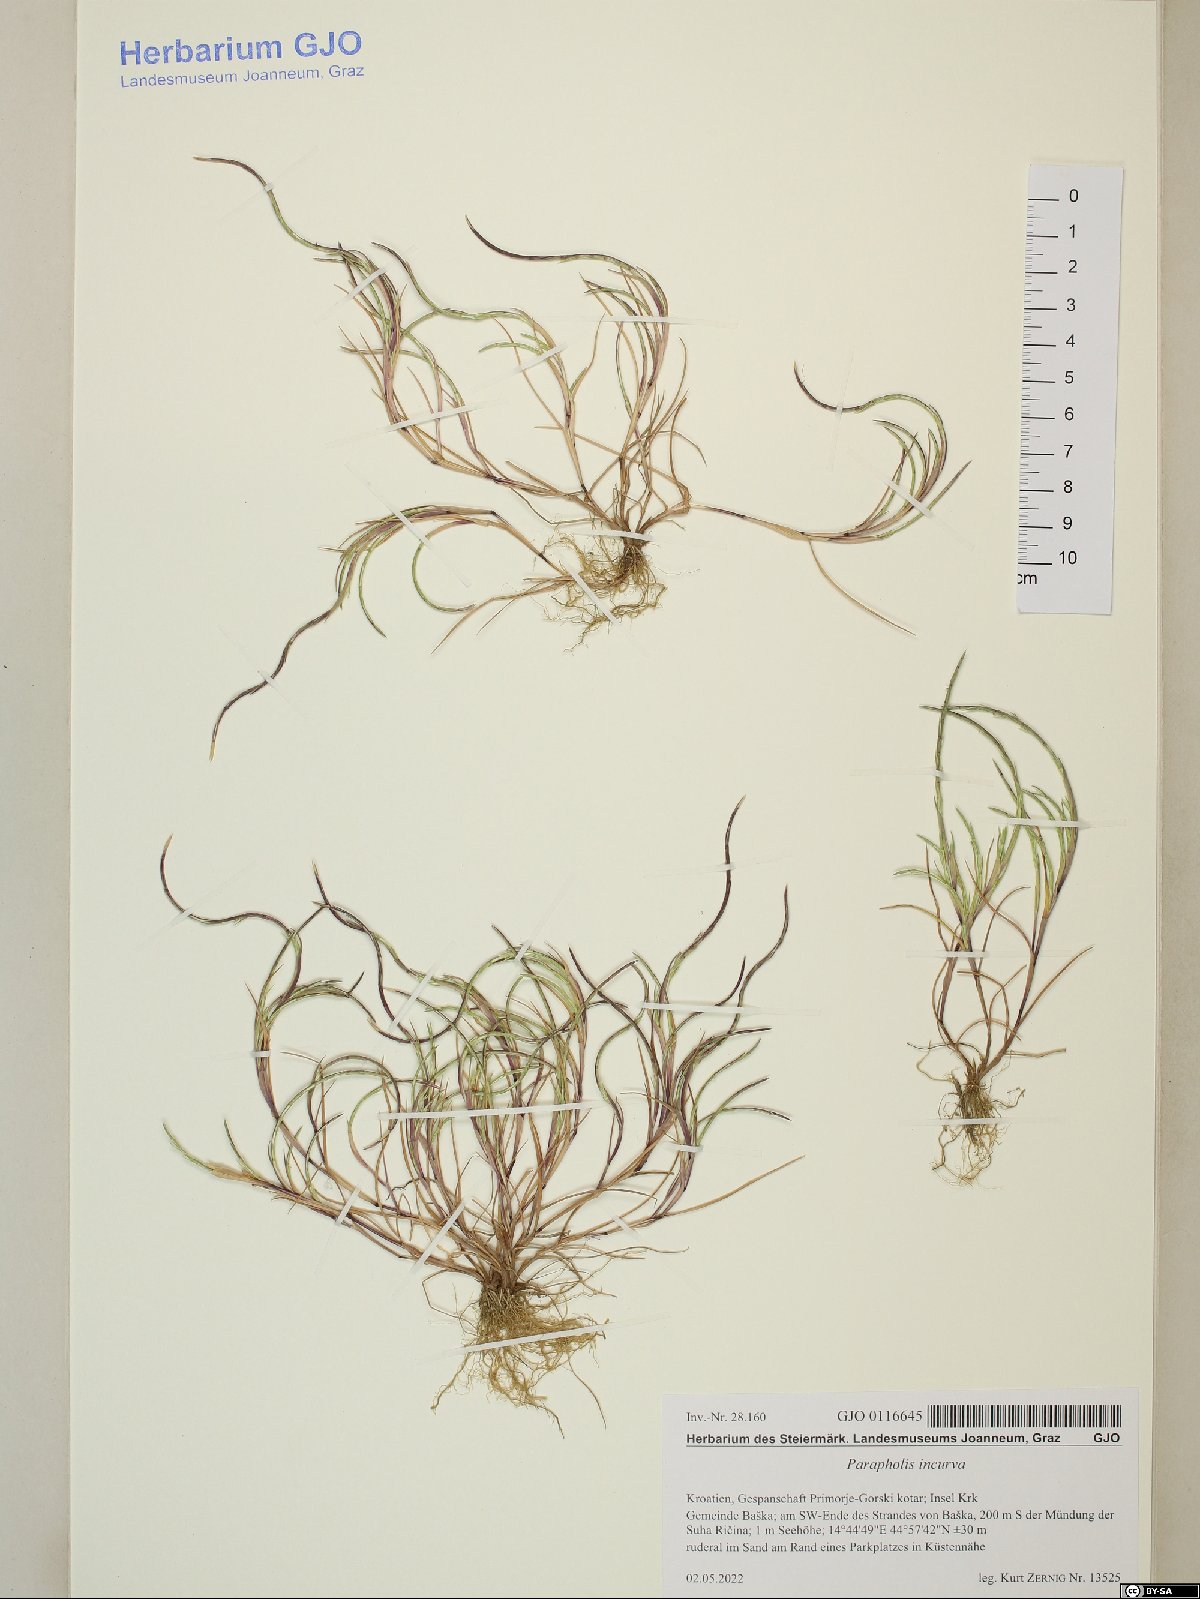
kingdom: Plantae
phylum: Tracheophyta
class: Liliopsida
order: Poales
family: Poaceae
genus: Parapholis
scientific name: Parapholis incurva
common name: Curved sicklegrass
